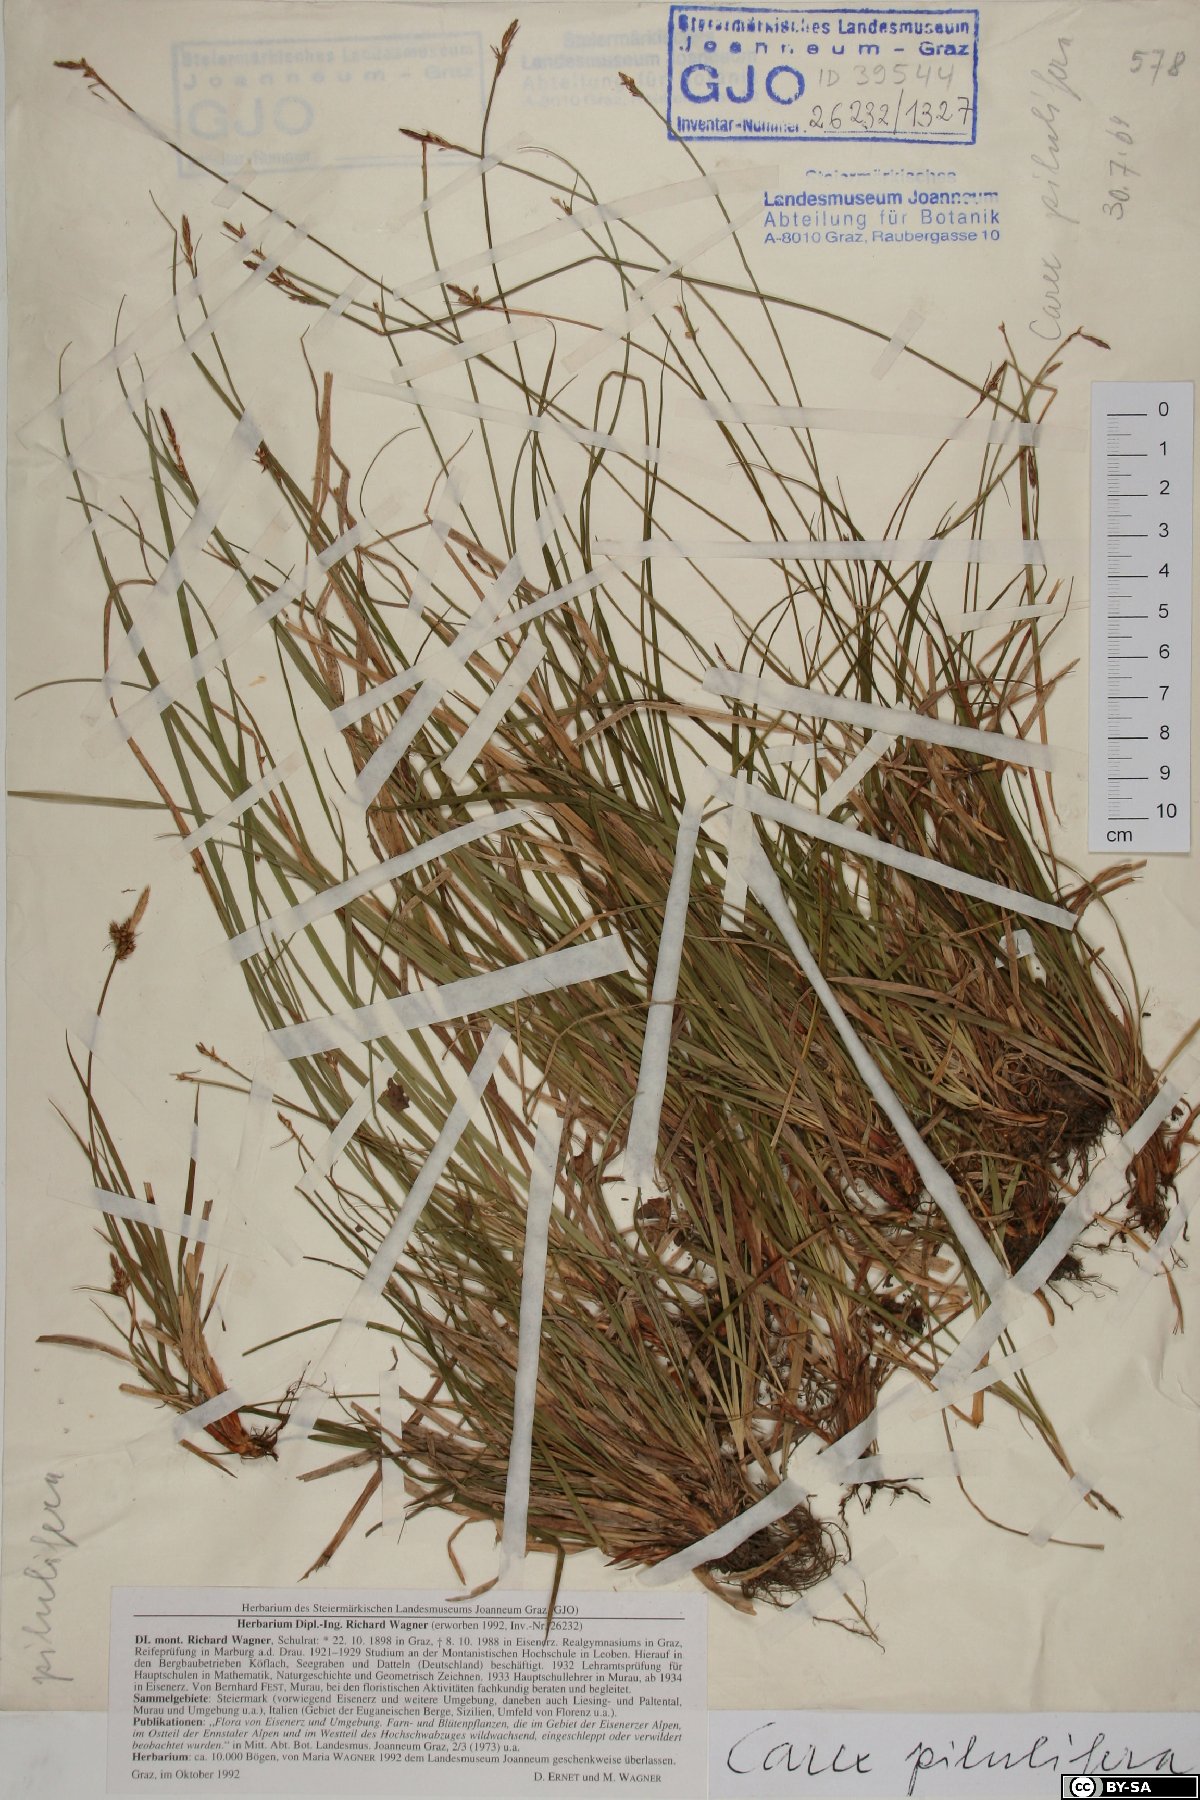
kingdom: Plantae
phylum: Tracheophyta
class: Liliopsida
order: Poales
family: Cyperaceae
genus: Carex
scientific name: Carex pilulifera
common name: Pill sedge
